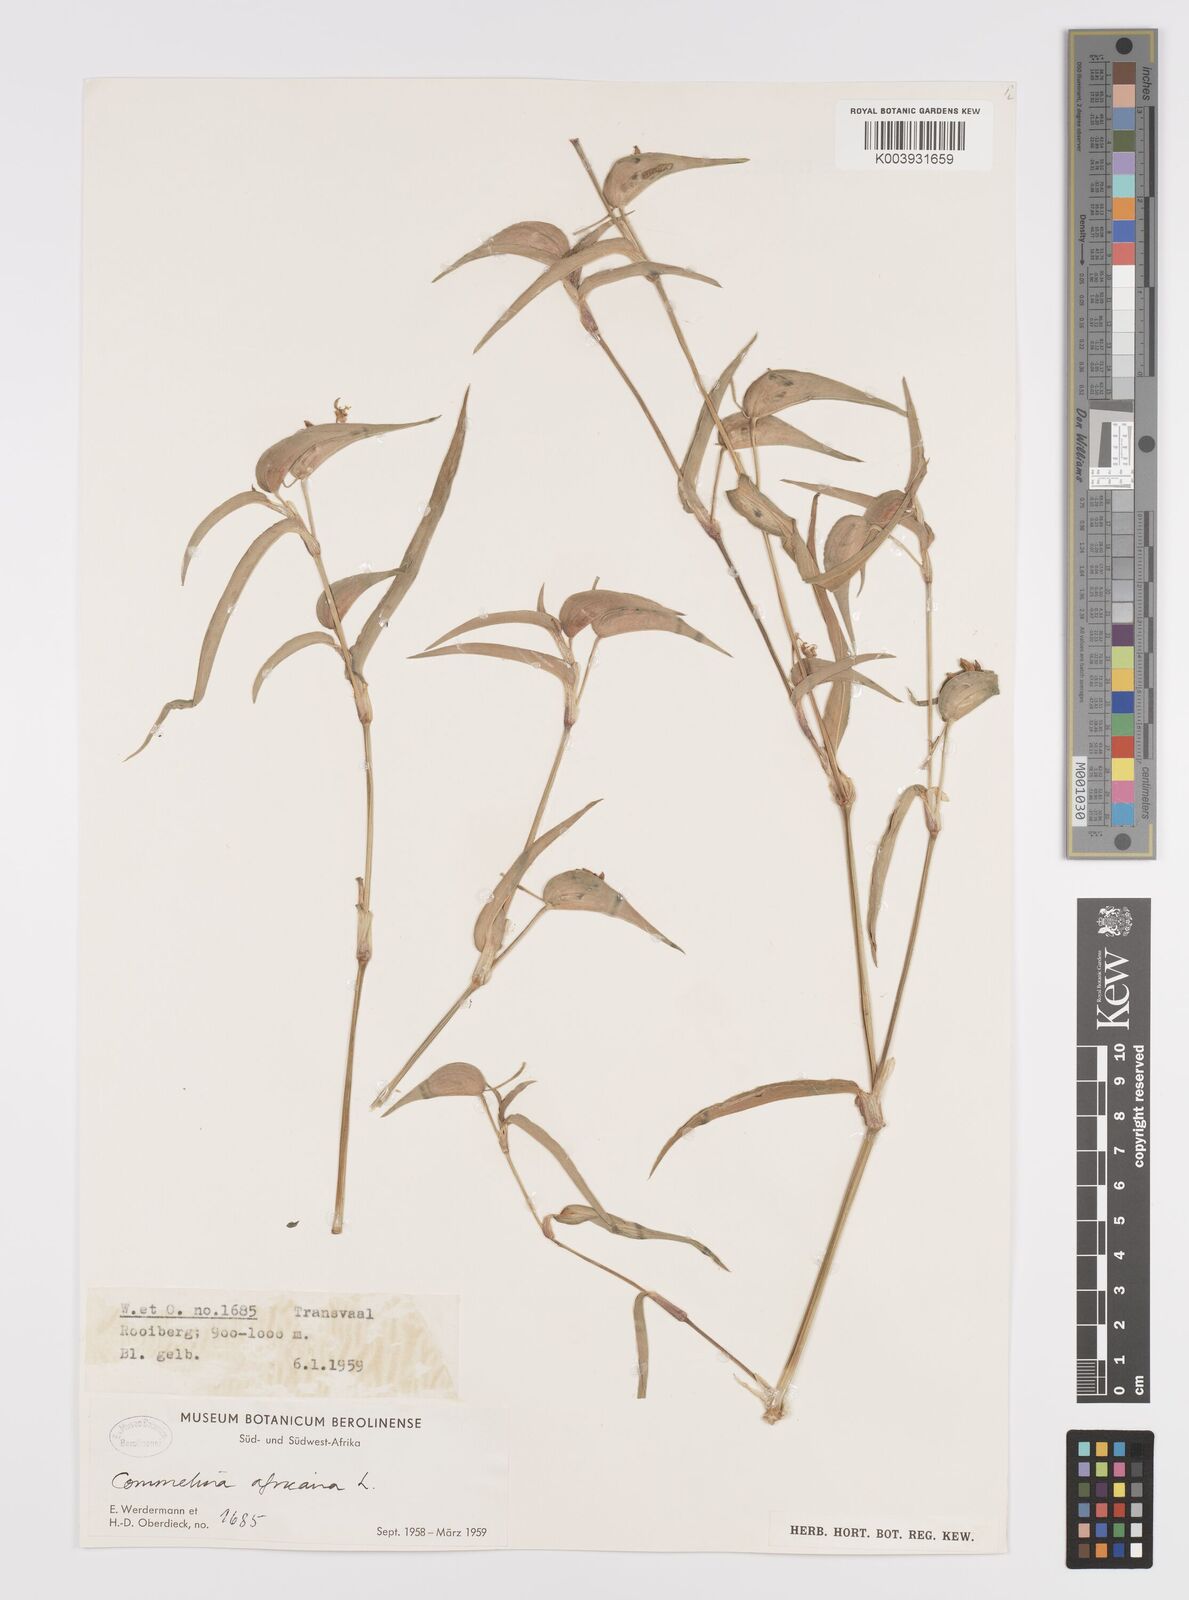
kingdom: Plantae
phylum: Tracheophyta
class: Liliopsida
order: Commelinales
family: Commelinaceae
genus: Commelina
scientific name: Commelina africana
